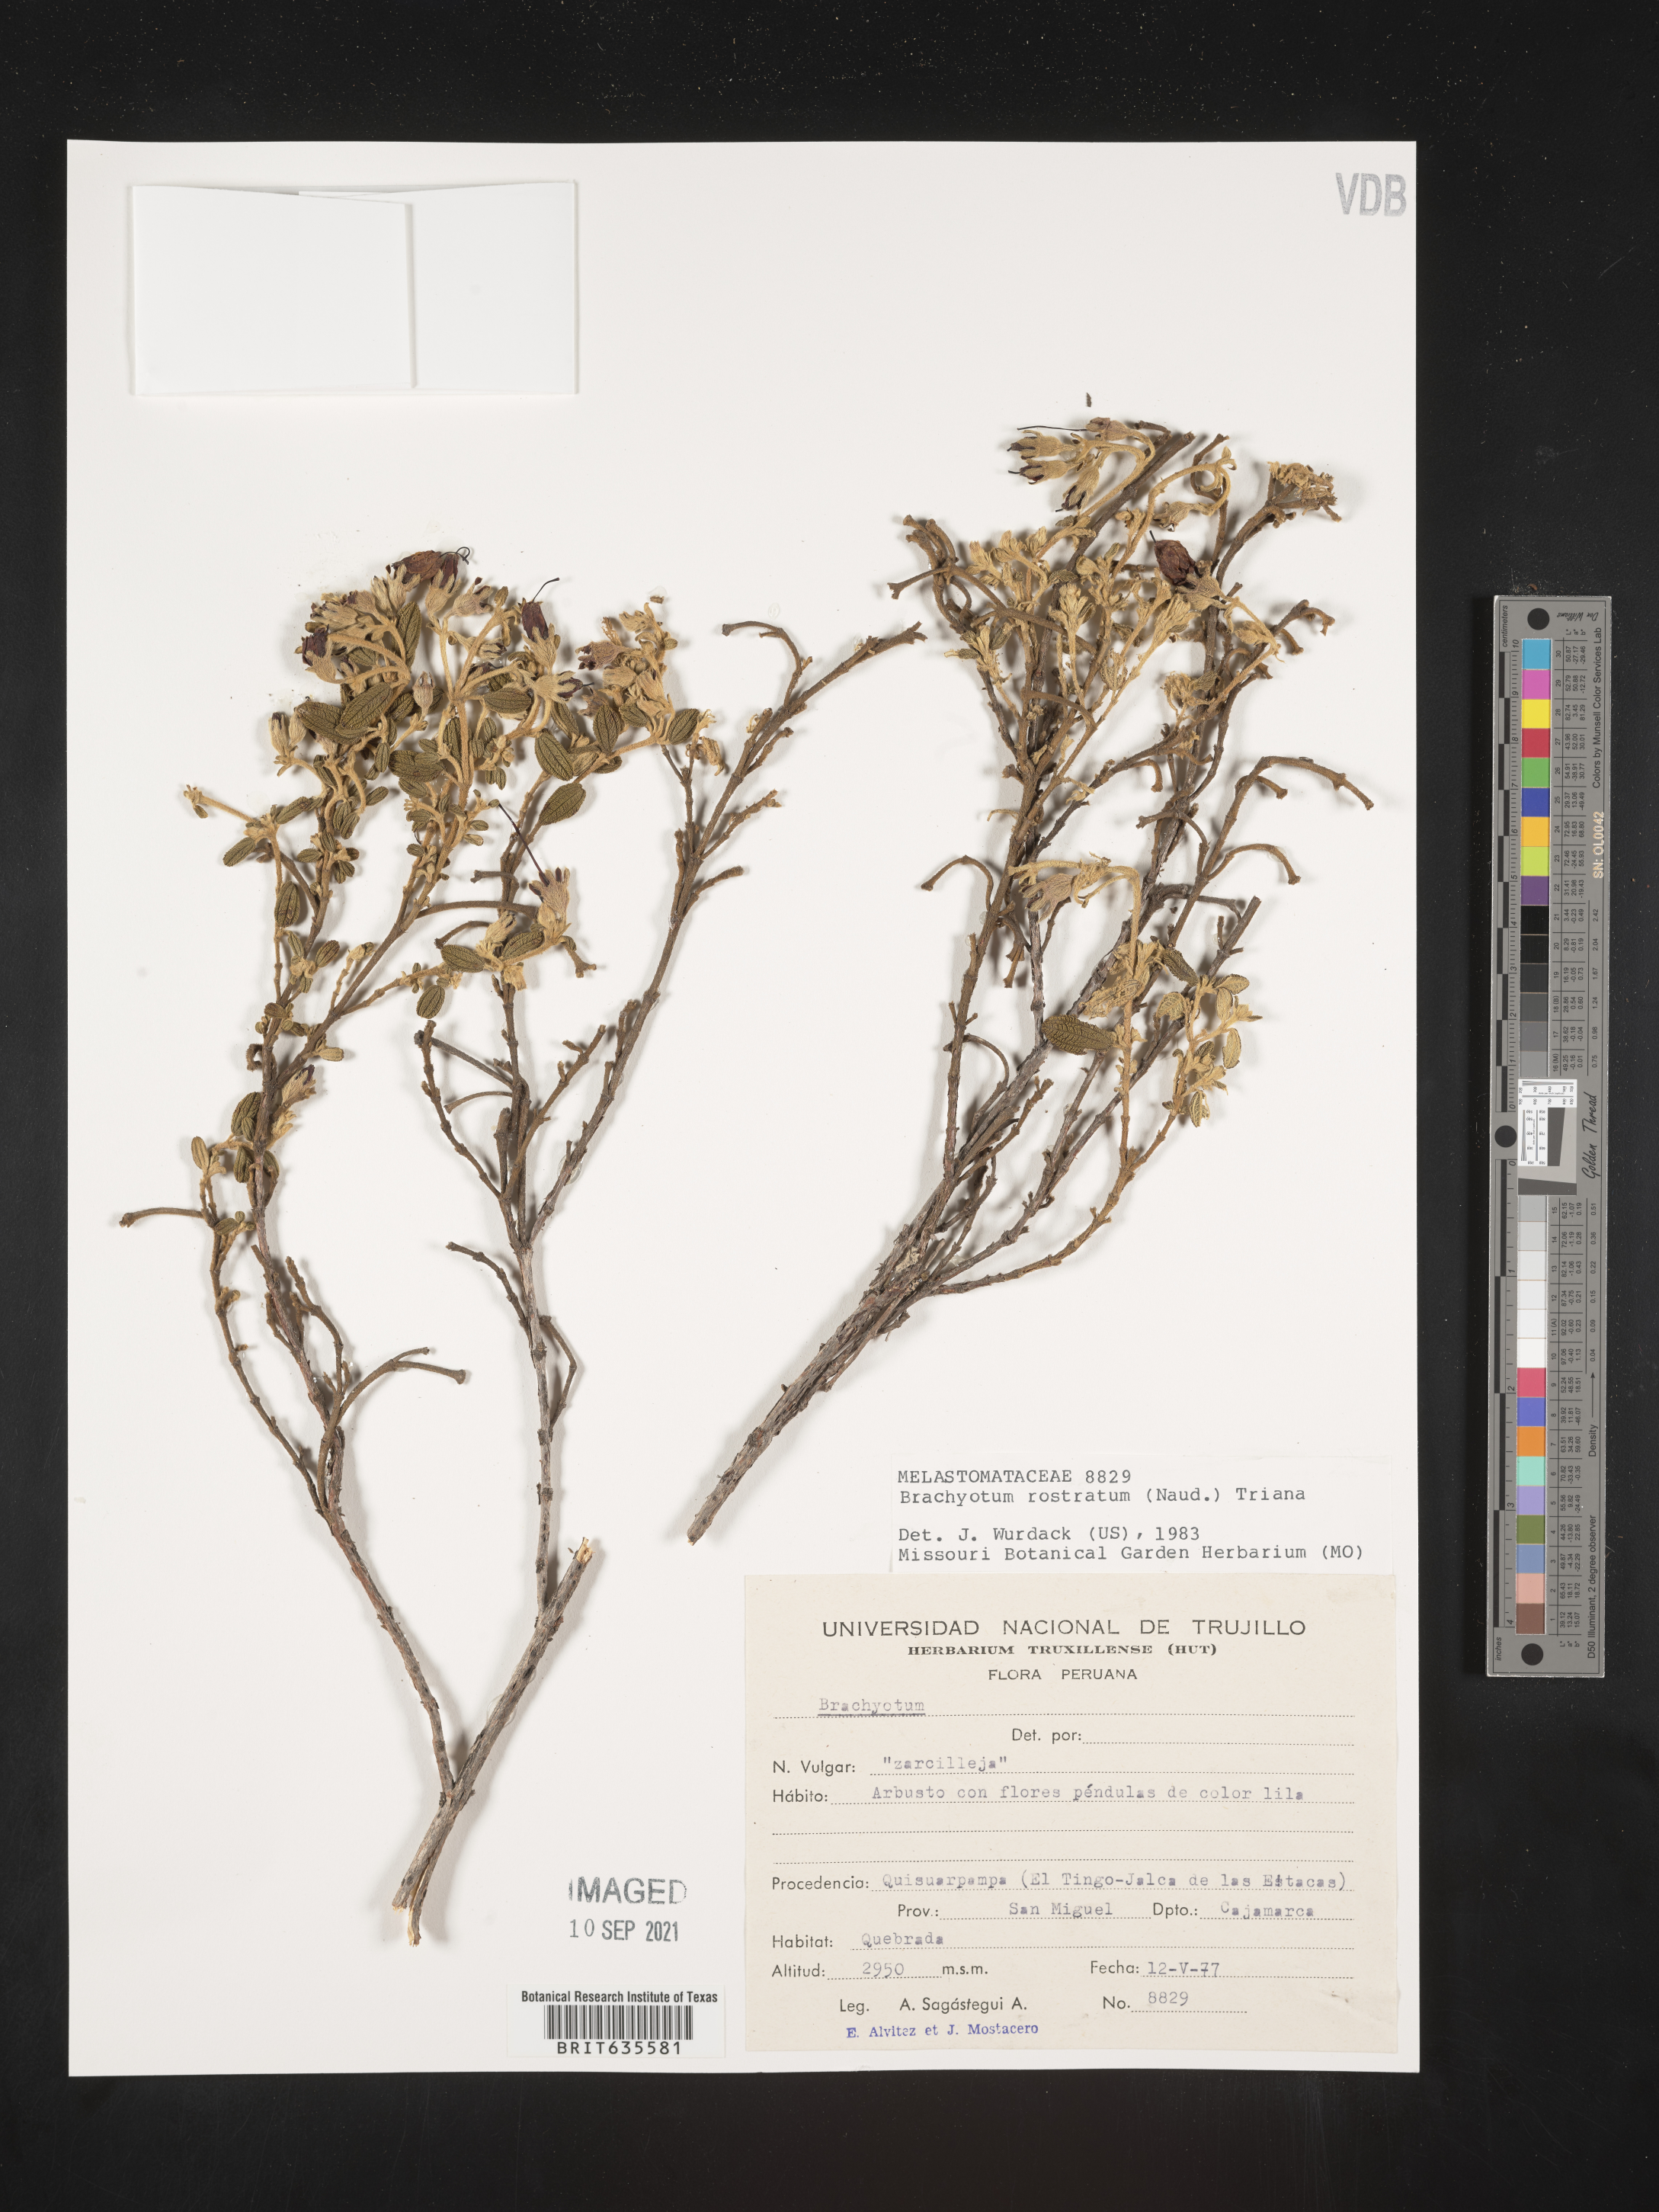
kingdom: Plantae
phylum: Tracheophyta
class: Magnoliopsida
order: Myrtales
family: Melastomataceae
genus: Brachyotum
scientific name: Brachyotum
